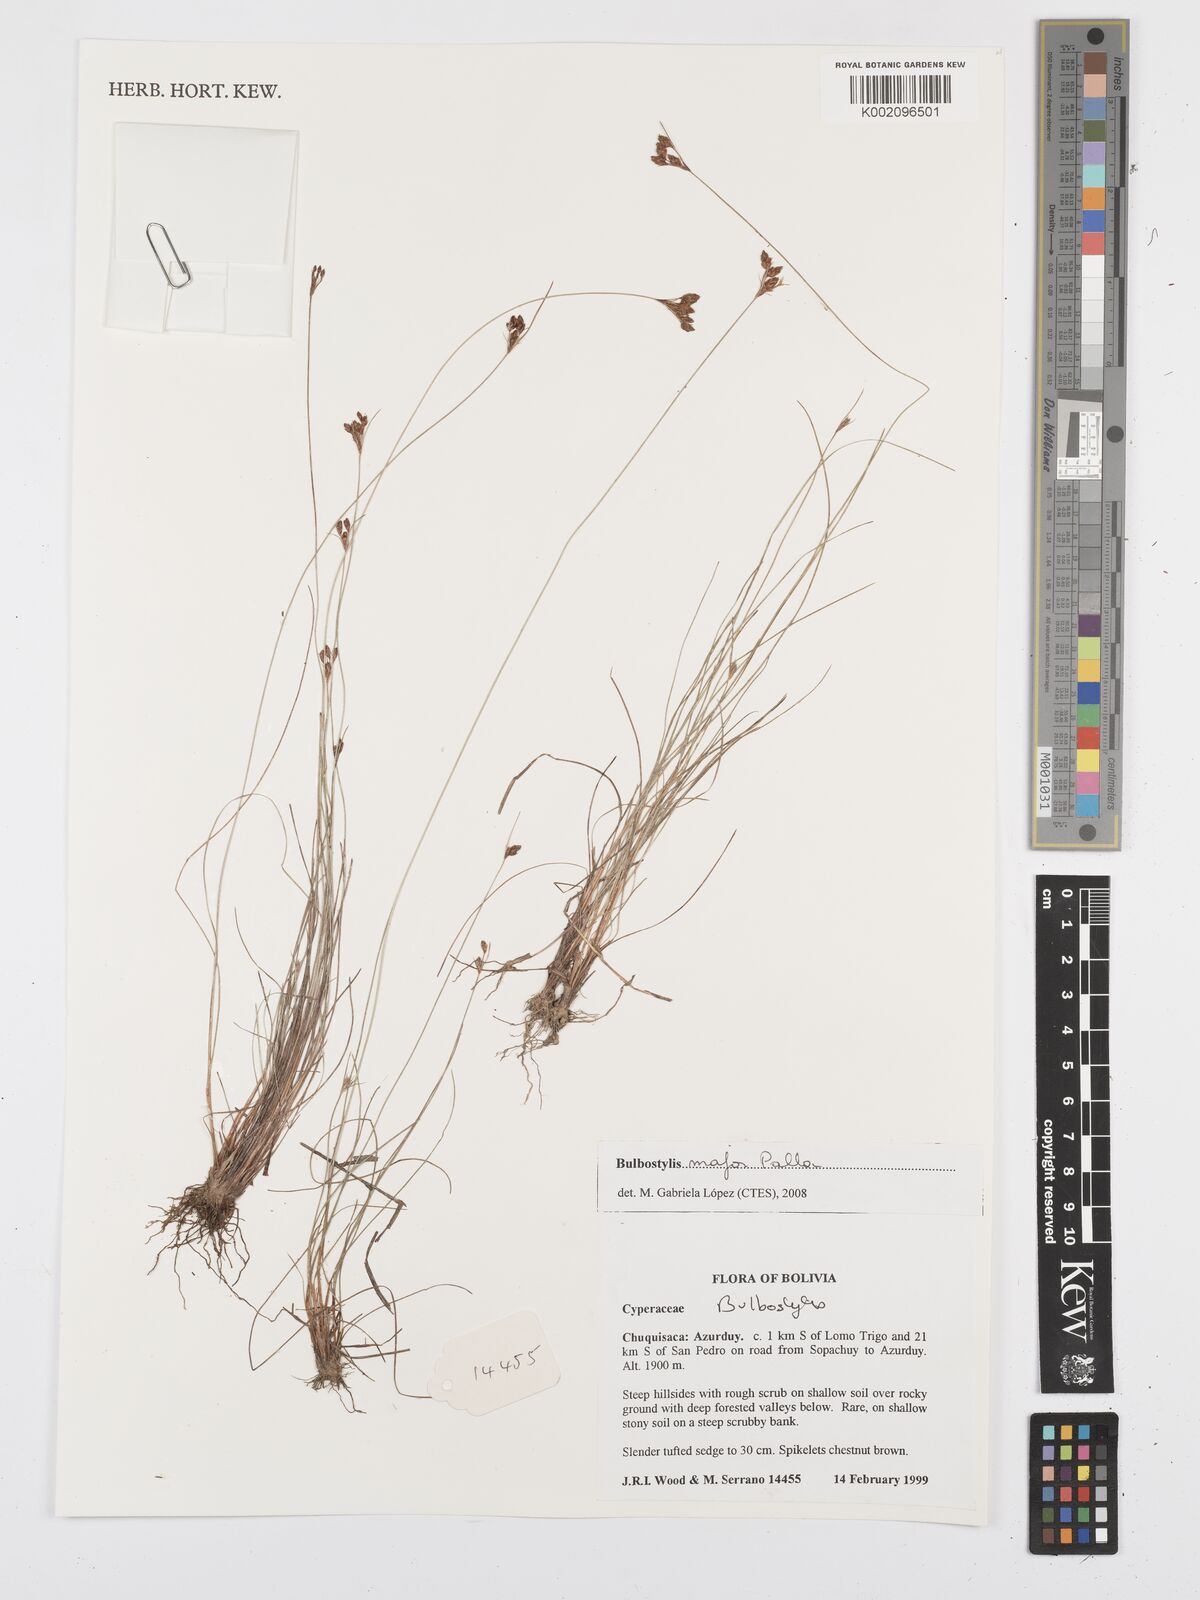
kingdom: Plantae
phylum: Tracheophyta
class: Liliopsida
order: Poales
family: Cyperaceae
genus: Bulbostylis
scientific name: Bulbostylis major
